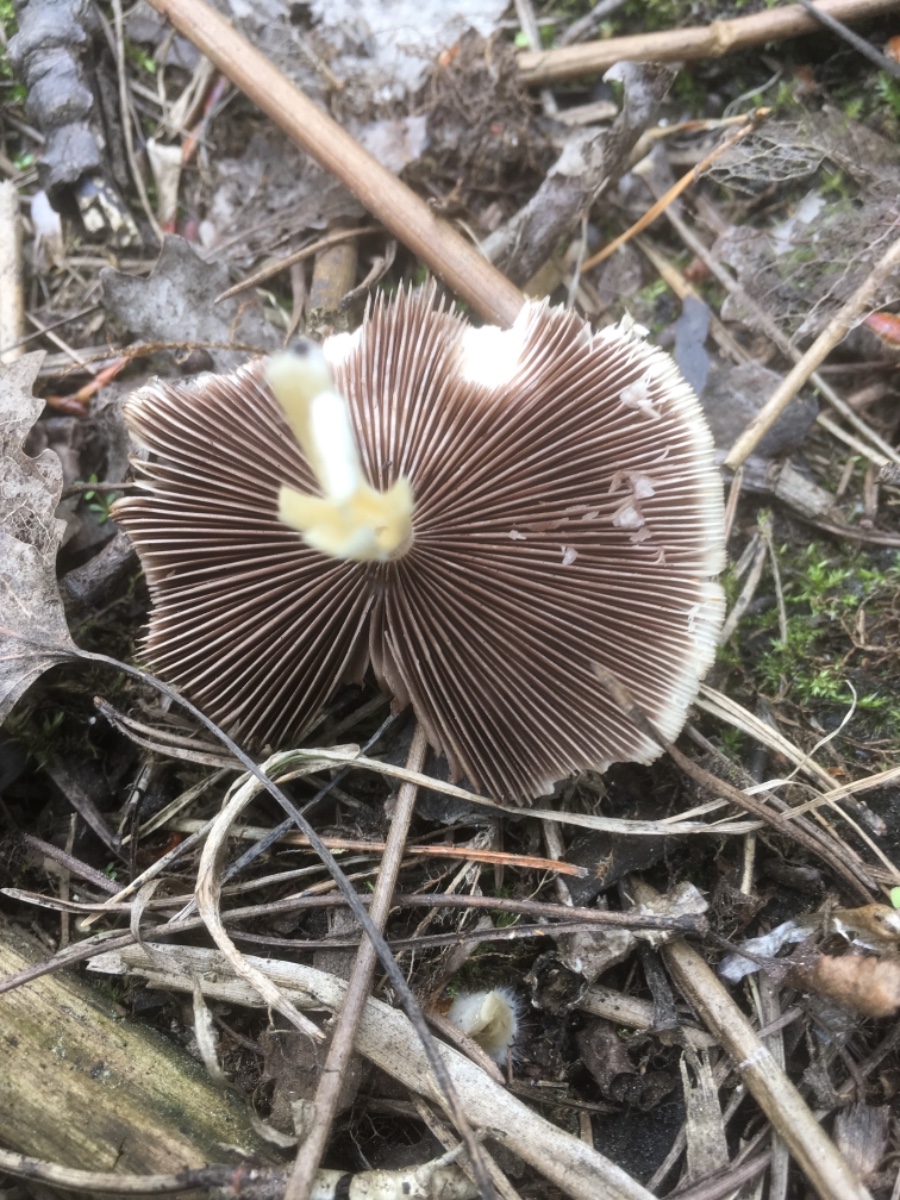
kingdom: Fungi
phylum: Basidiomycota
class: Agaricomycetes
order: Agaricales
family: Psathyrellaceae
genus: Psathyrella
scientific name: Psathyrella
